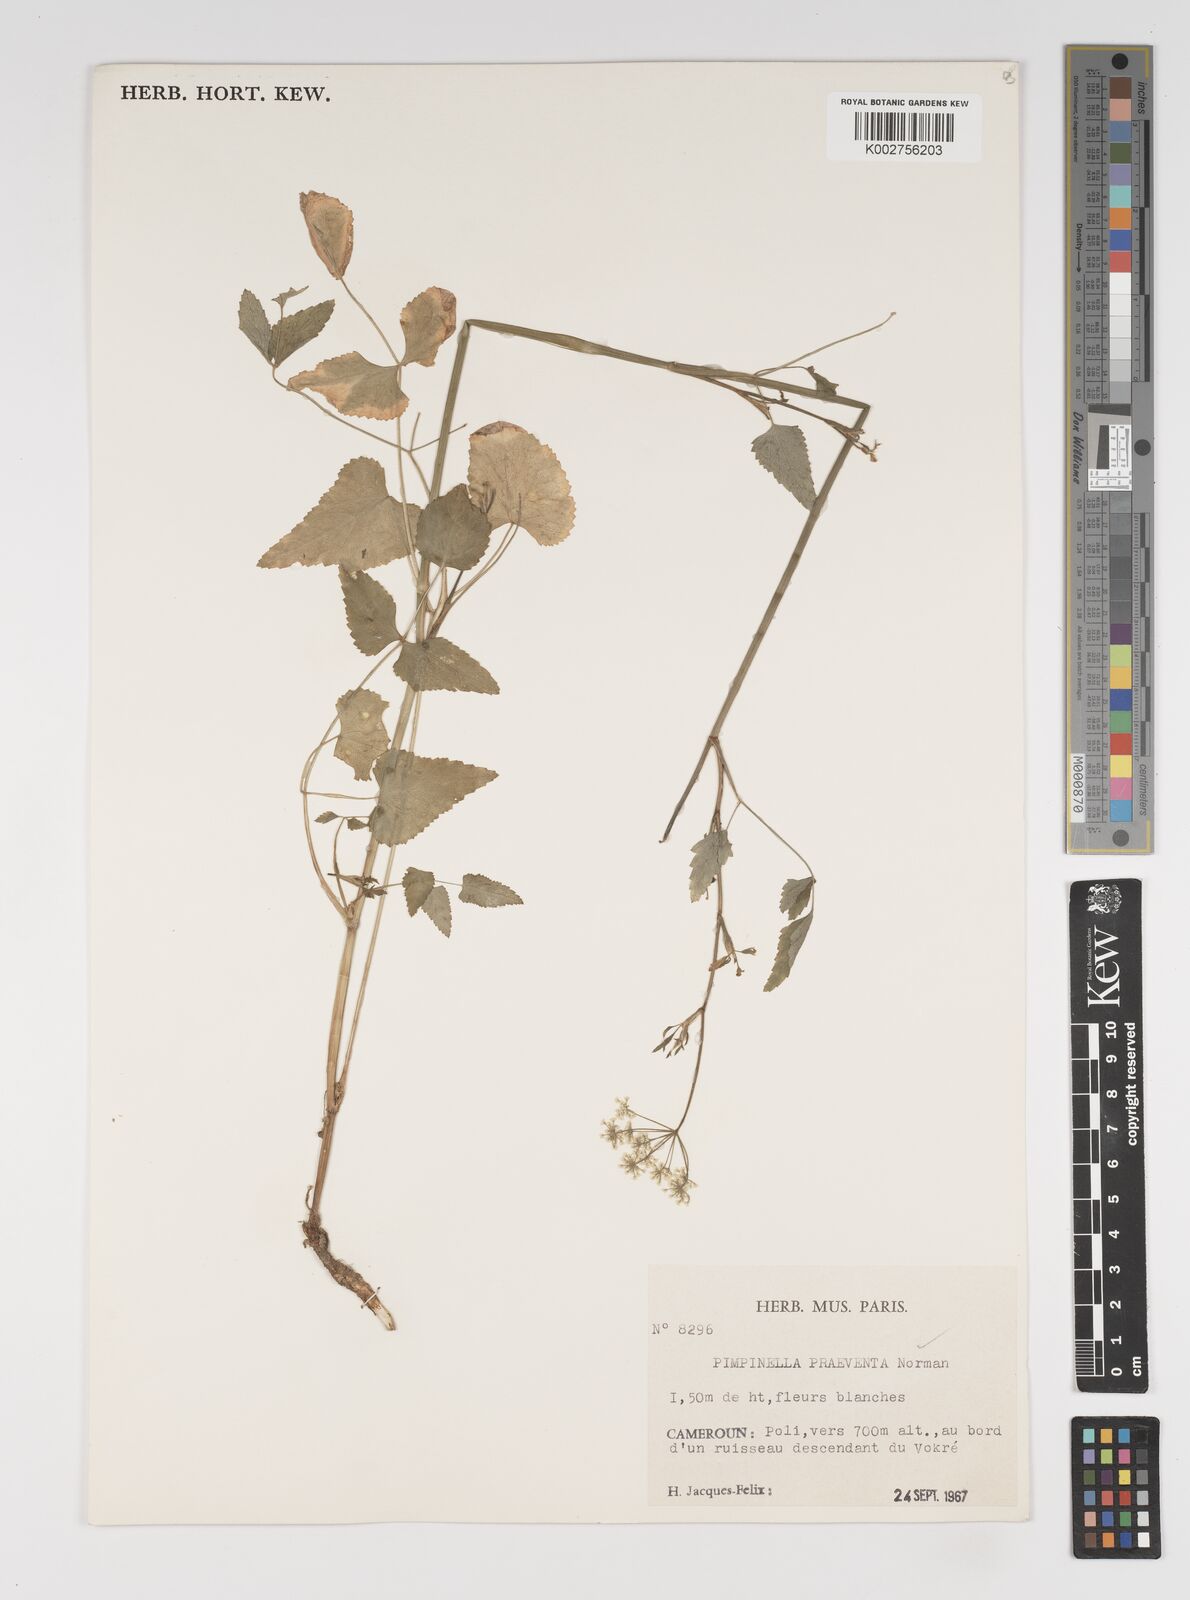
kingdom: Plantae
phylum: Tracheophyta
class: Magnoliopsida
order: Apiales
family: Apiaceae
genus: Pimpinella
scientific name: Pimpinella hirtella
